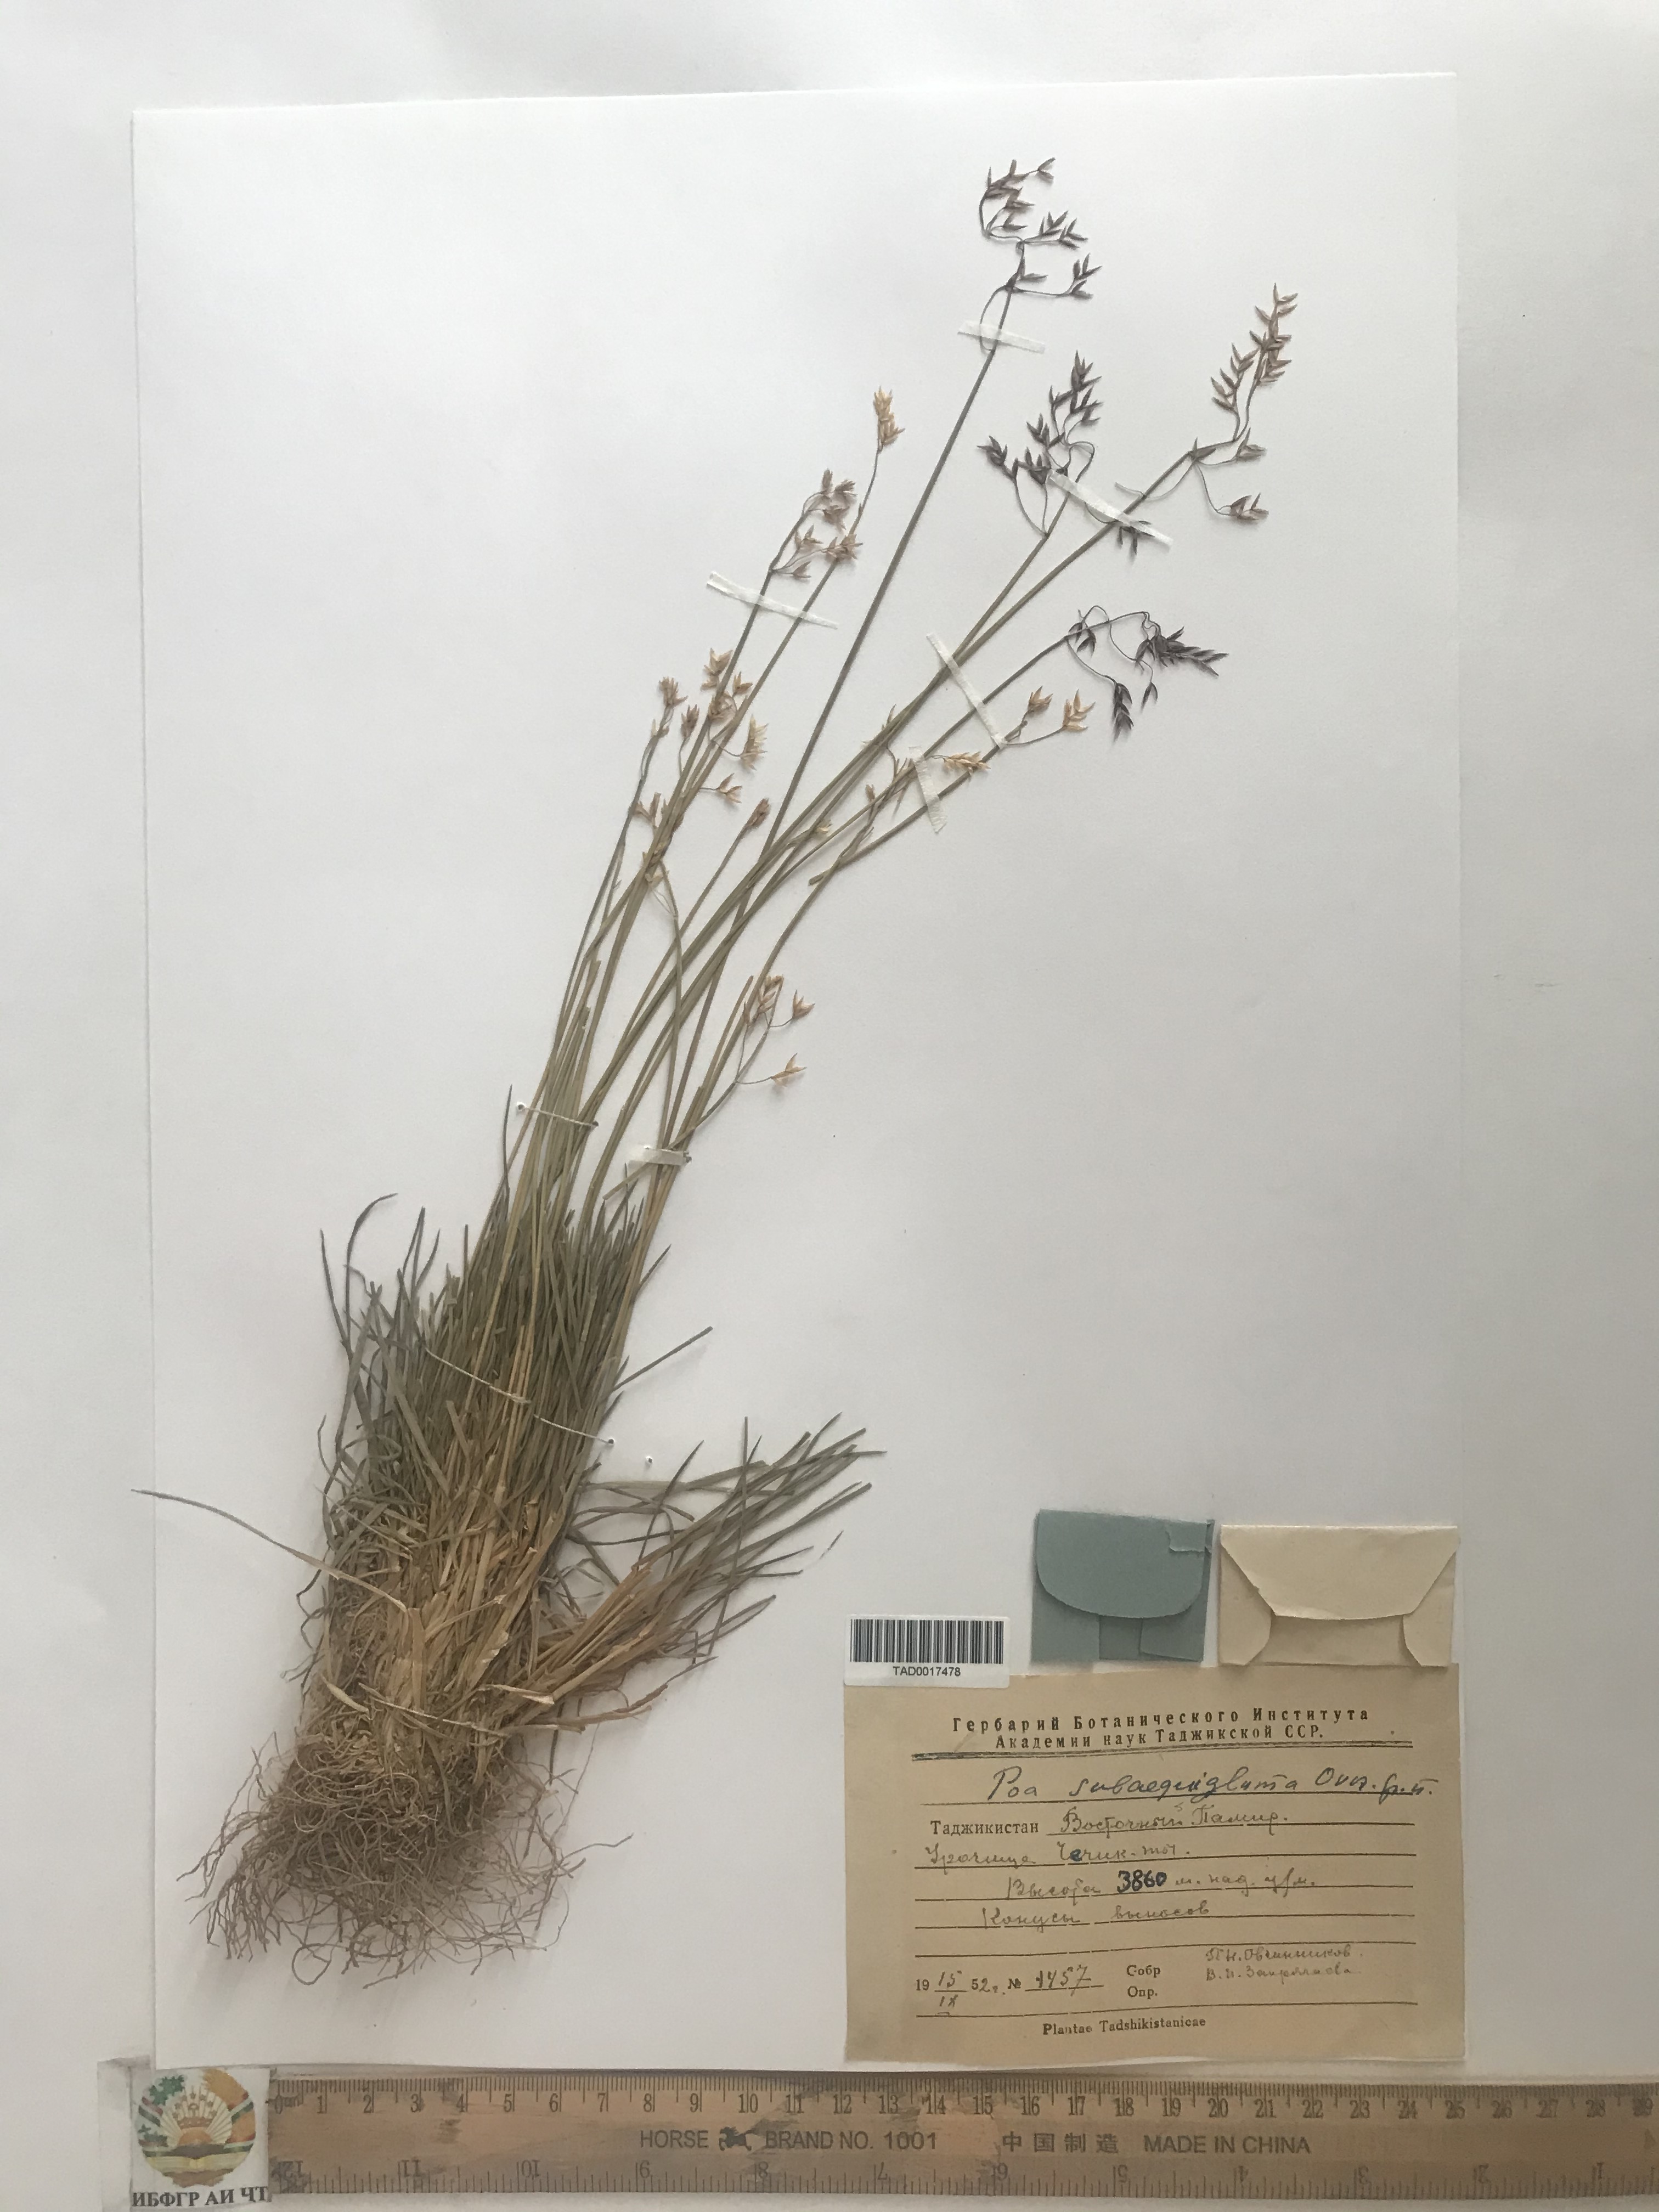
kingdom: Plantae
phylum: Tracheophyta
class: Liliopsida
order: Poales
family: Poaceae
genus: Poa
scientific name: Poa
